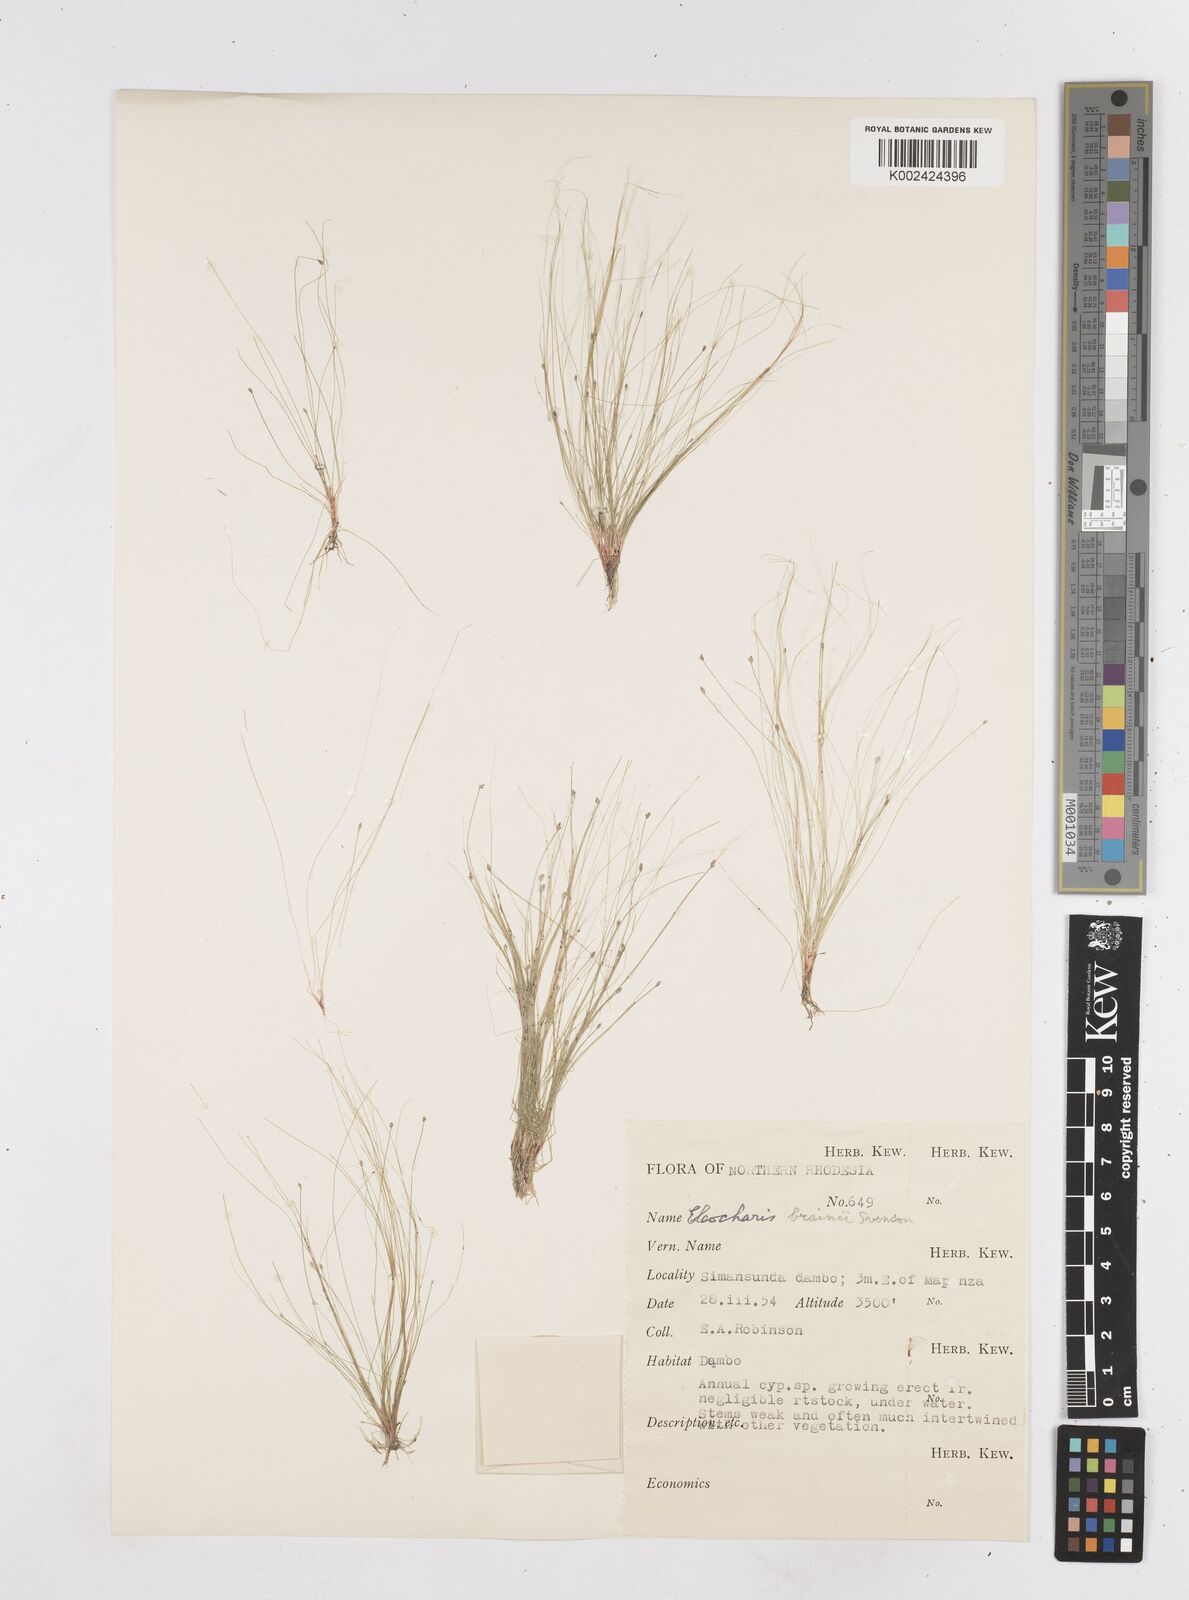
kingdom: Plantae
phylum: Tracheophyta
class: Liliopsida
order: Poales
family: Cyperaceae
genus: Eleocharis
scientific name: Eleocharis brainii
